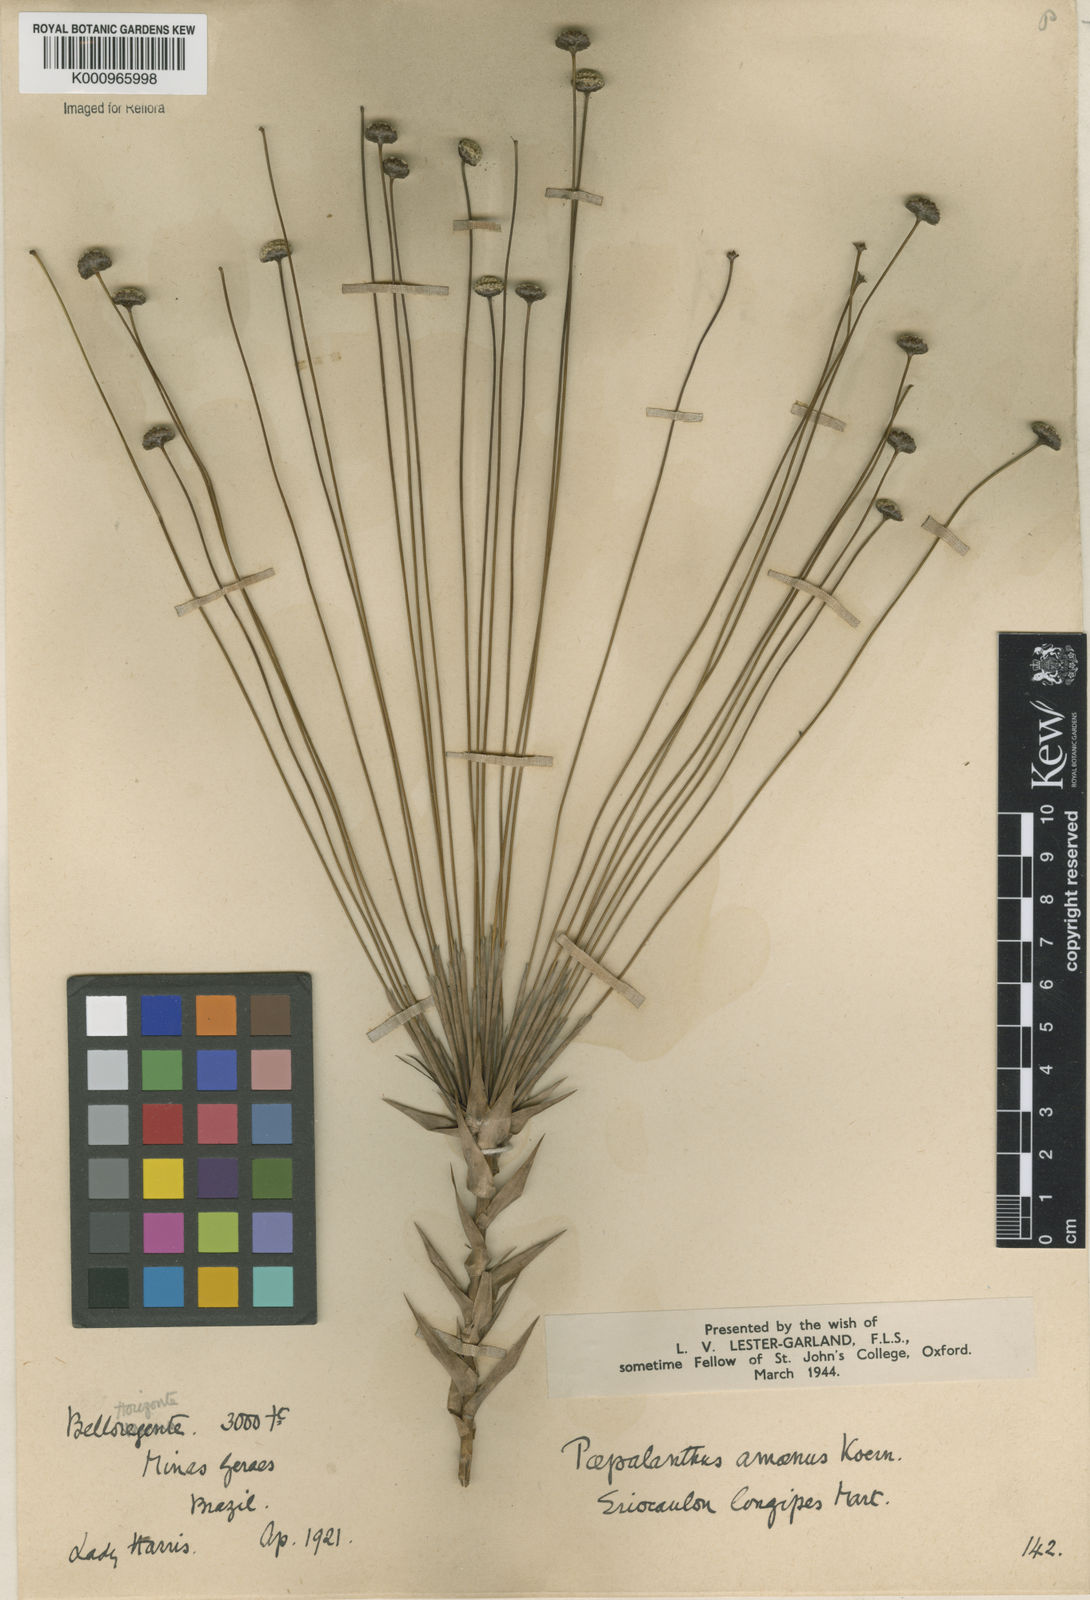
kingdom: Plantae
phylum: Tracheophyta
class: Liliopsida
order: Poales
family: Eriocaulaceae
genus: Paepalanthus
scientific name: Paepalanthus
